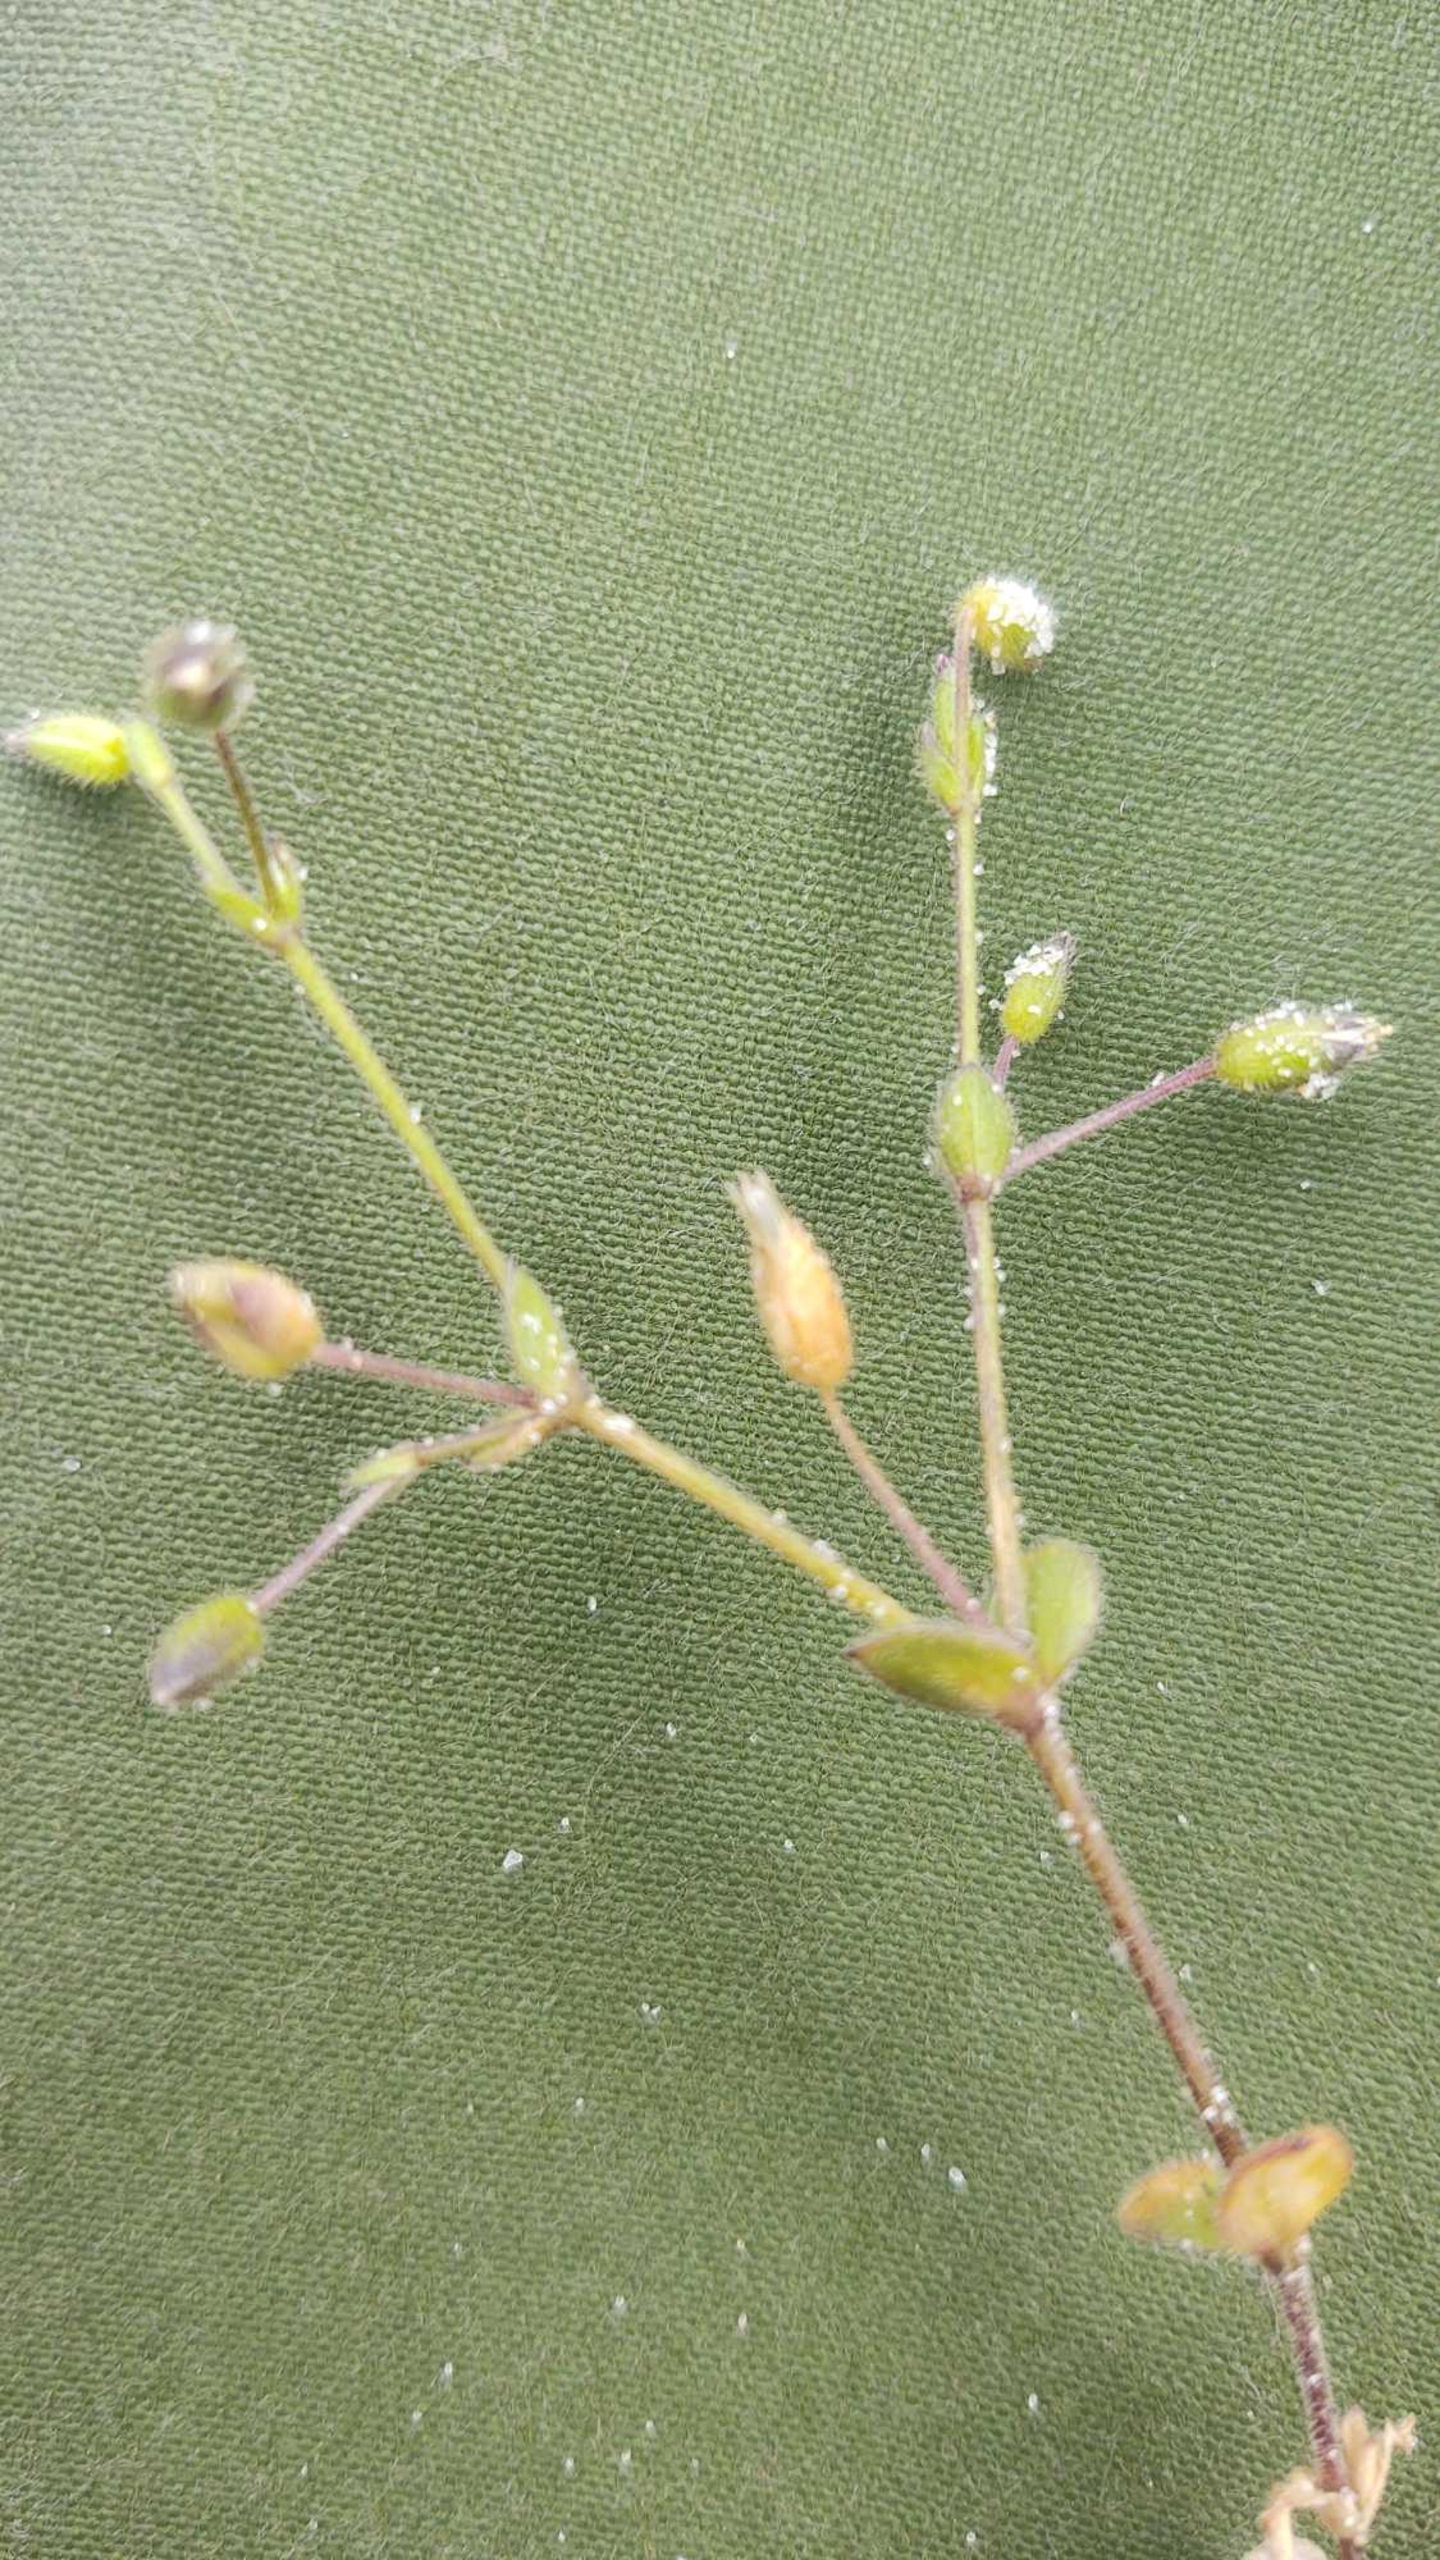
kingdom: Plantae
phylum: Tracheophyta
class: Magnoliopsida
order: Caryophyllales
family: Caryophyllaceae
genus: Cerastium
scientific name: Cerastium diffusum
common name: Firehannet hønsetarm
